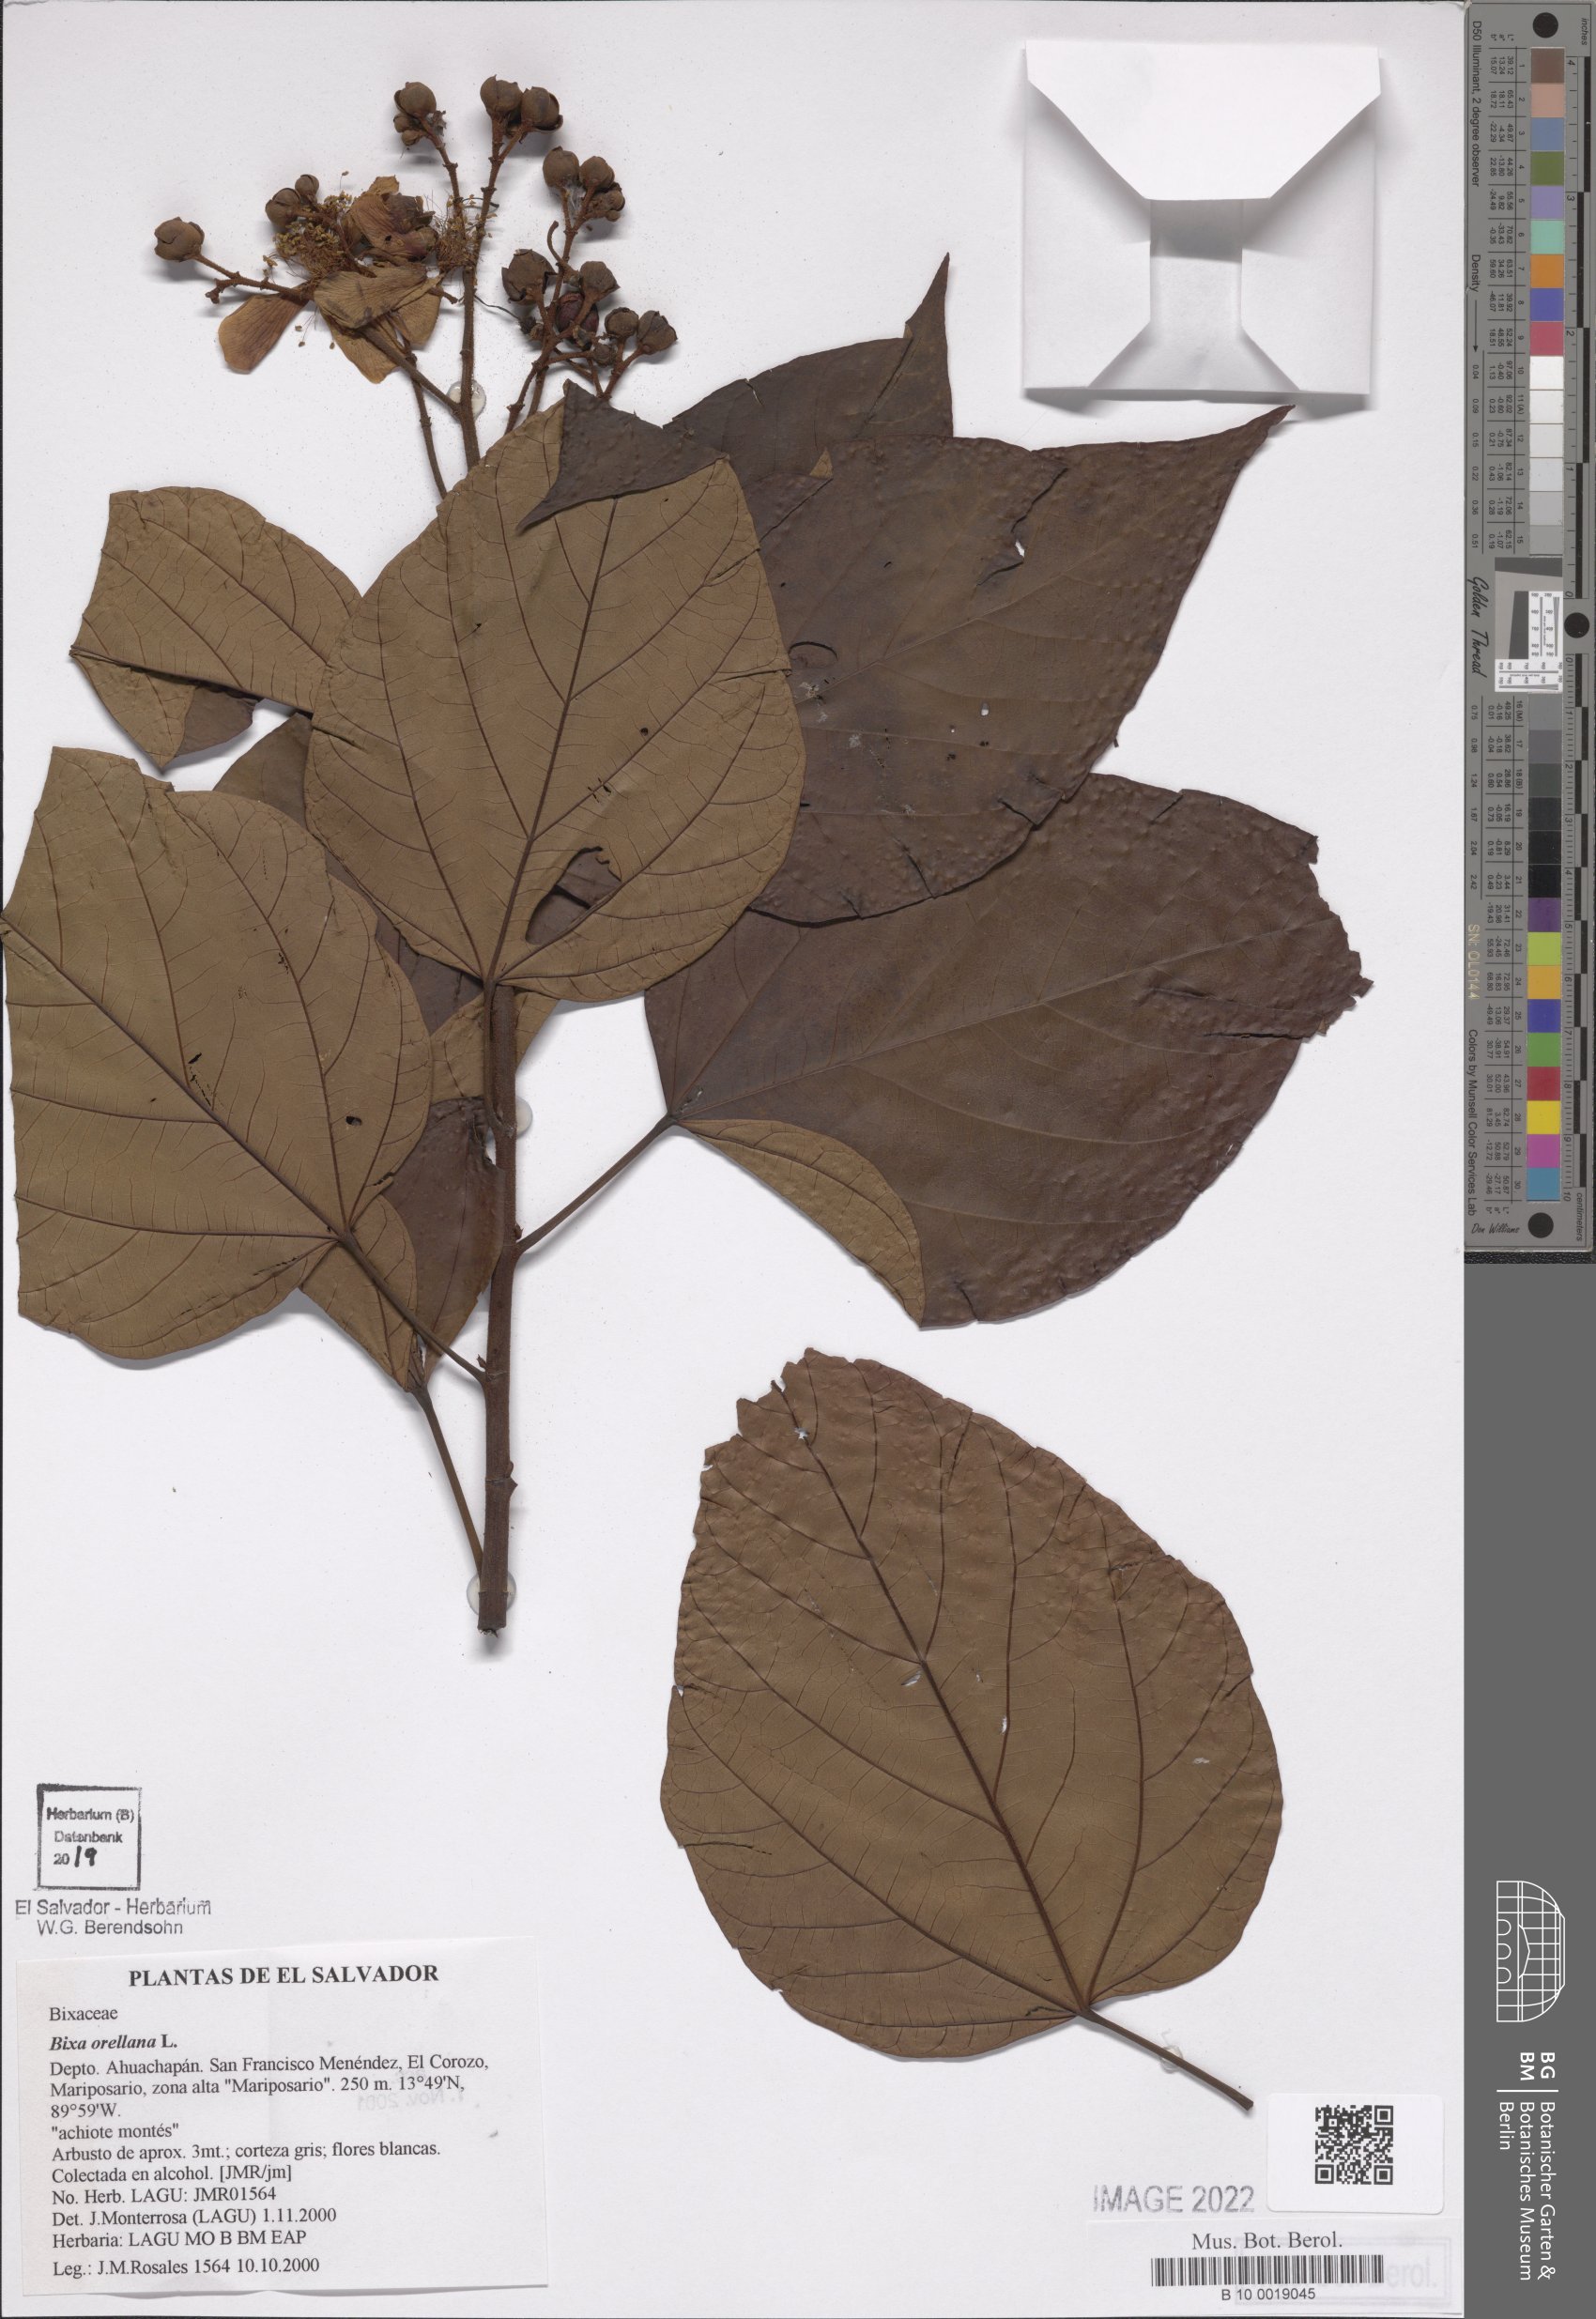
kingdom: Plantae
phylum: Tracheophyta
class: Magnoliopsida
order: Malvales
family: Bixaceae
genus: Bixa
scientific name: Bixa orellana
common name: Lipsticktree
